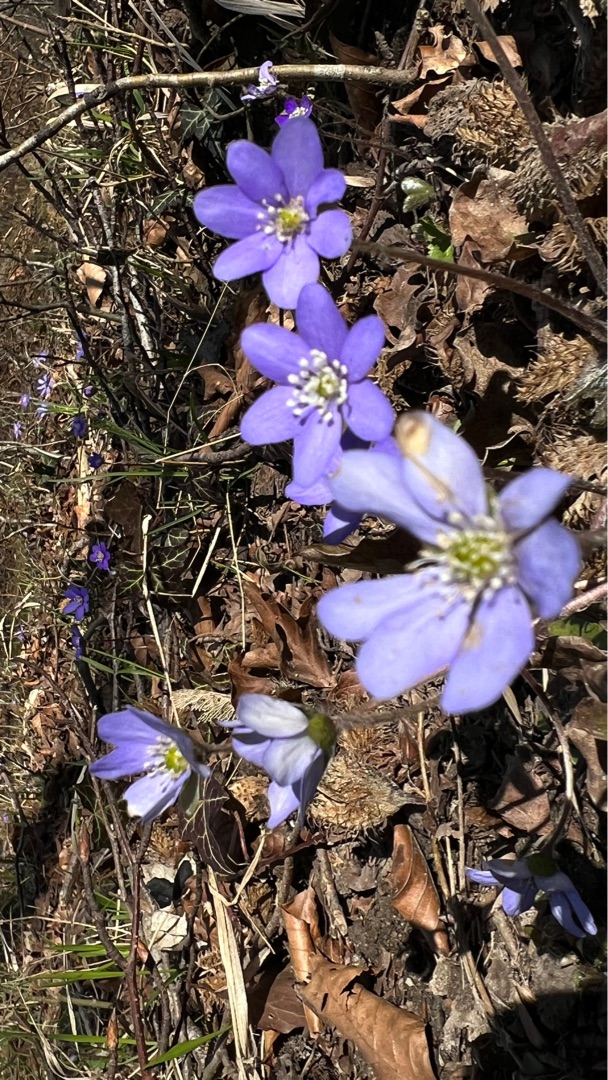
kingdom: Plantae
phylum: Tracheophyta
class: Magnoliopsida
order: Ranunculales
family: Ranunculaceae
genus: Hepatica
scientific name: Hepatica nobilis
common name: Blå anemone
